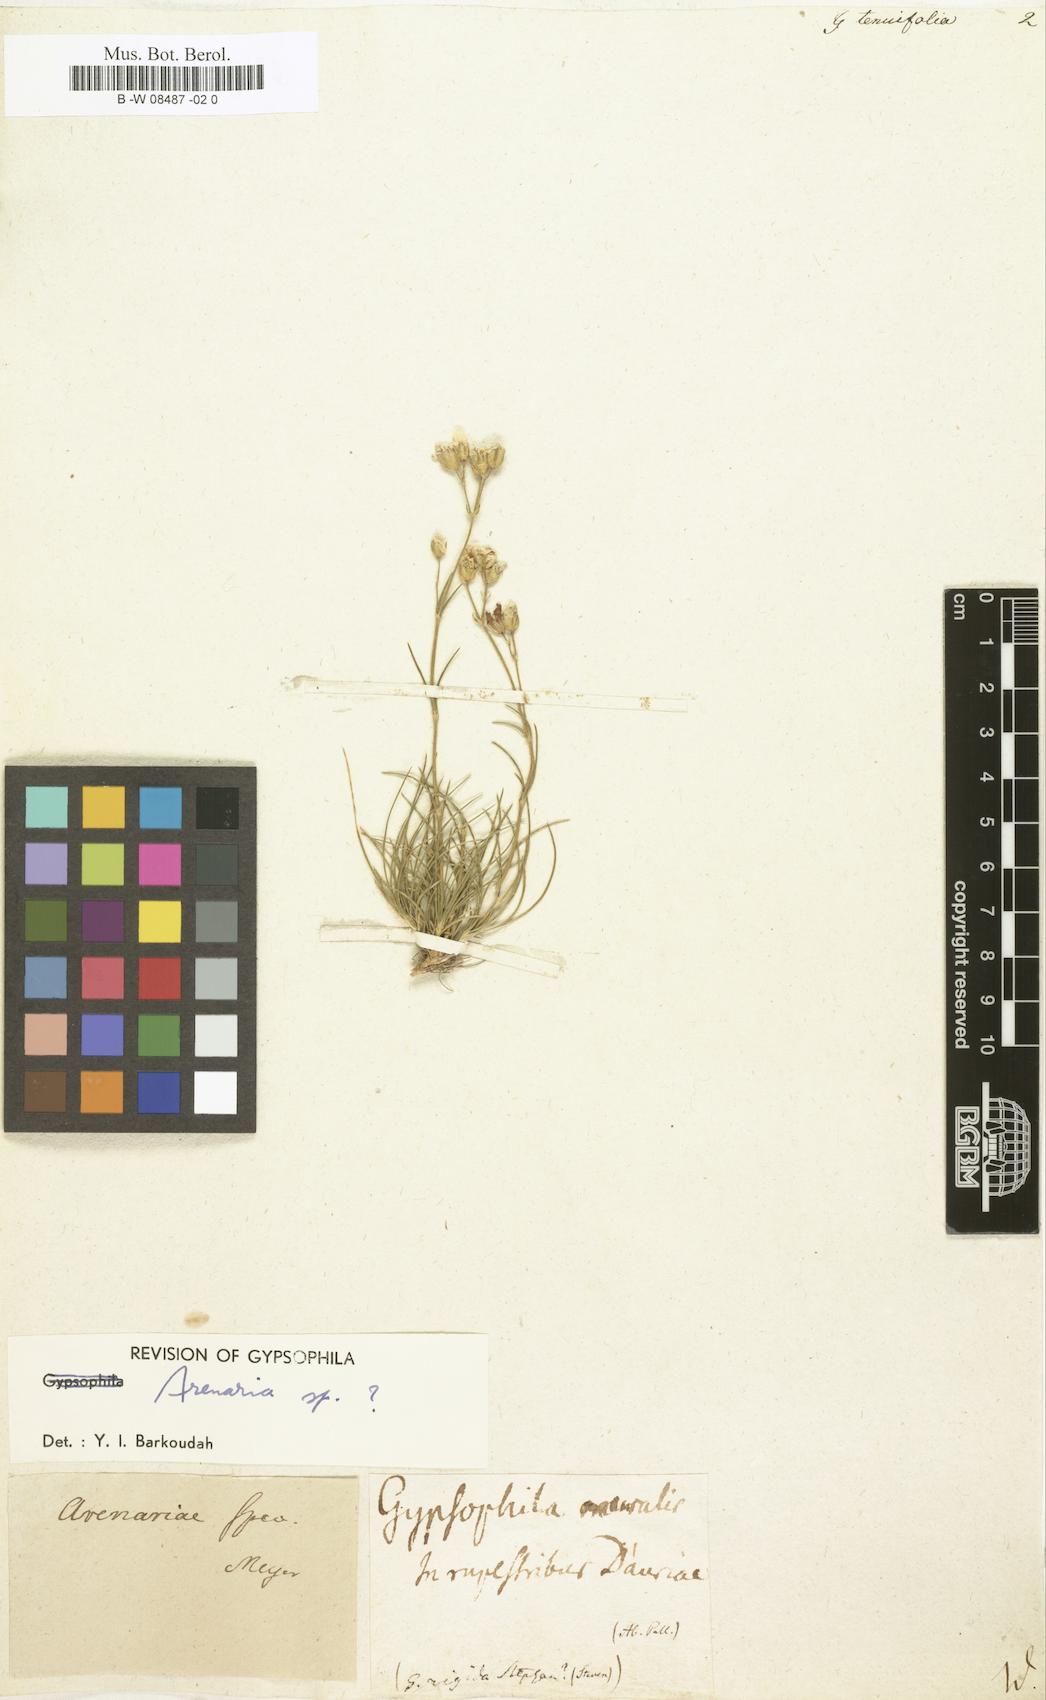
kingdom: Plantae
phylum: Tracheophyta
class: Magnoliopsida
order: Caryophyllales
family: Caryophyllaceae
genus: Gypsophila
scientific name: Gypsophila tenuifolia
